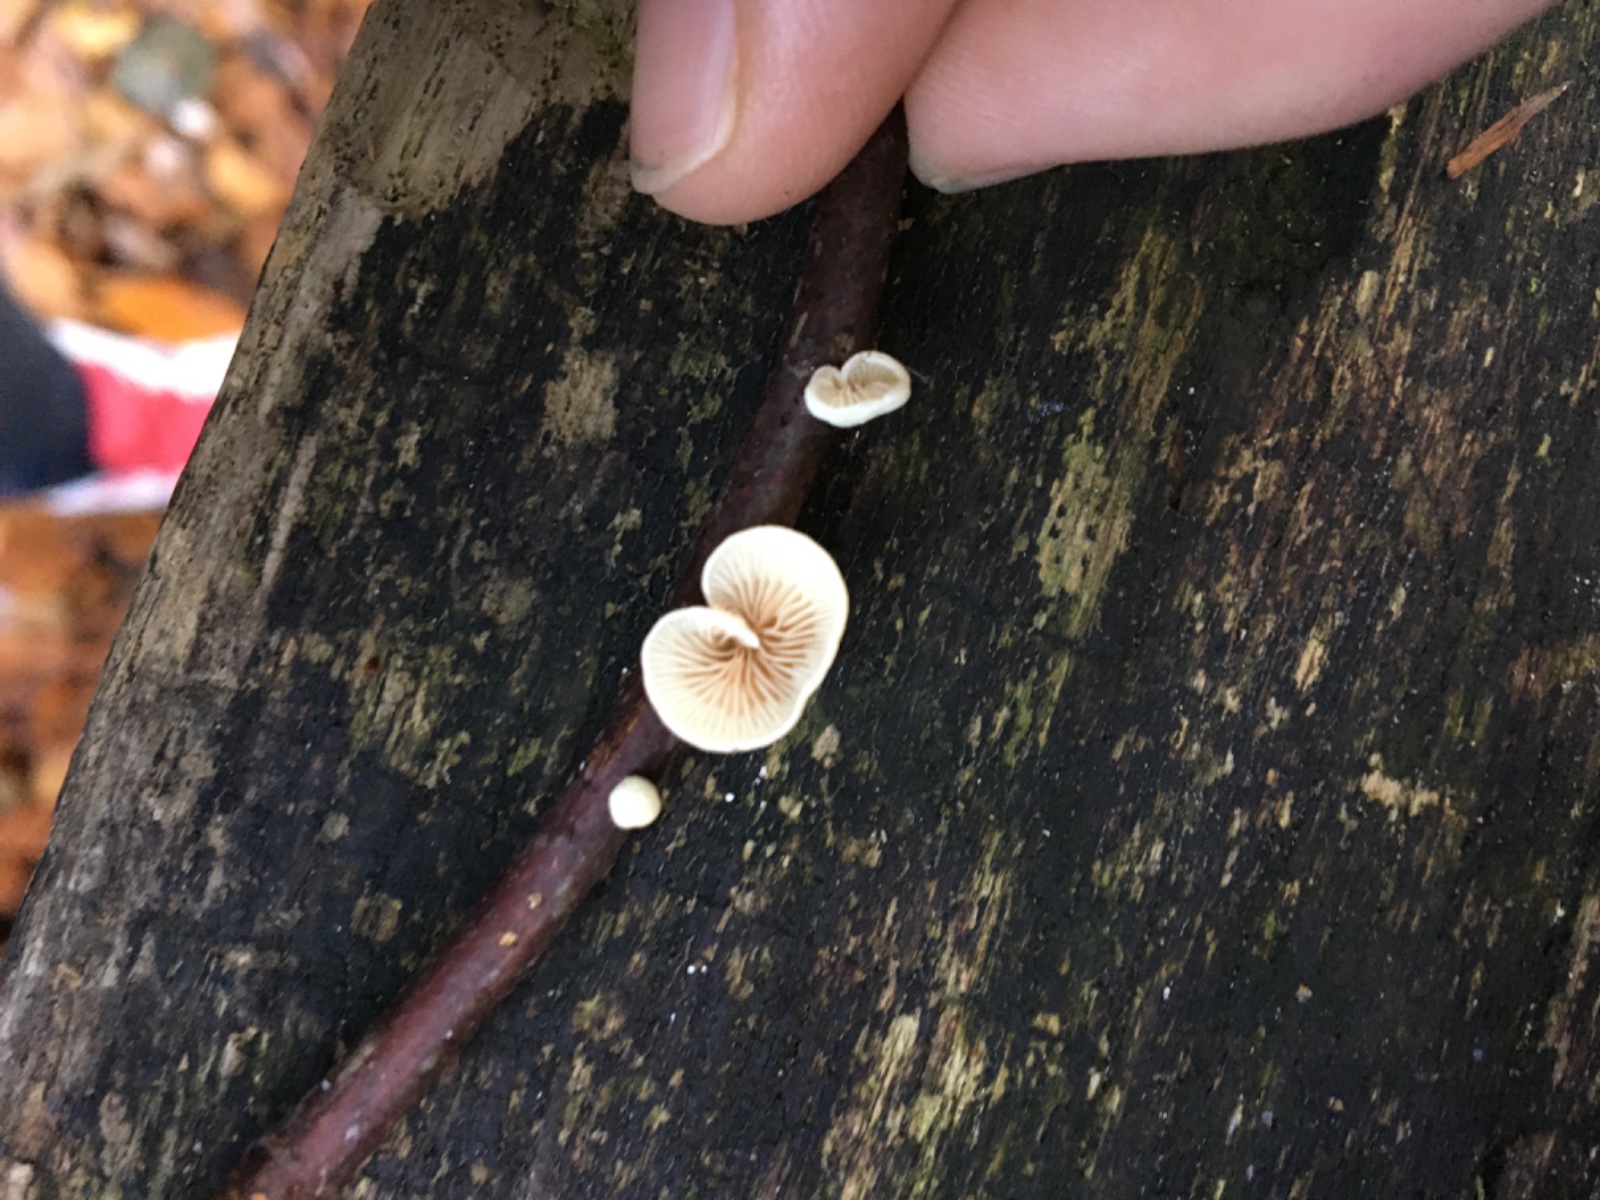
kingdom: Fungi
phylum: Basidiomycota
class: Agaricomycetes
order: Agaricales
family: Crepidotaceae
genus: Crepidotus
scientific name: Crepidotus
